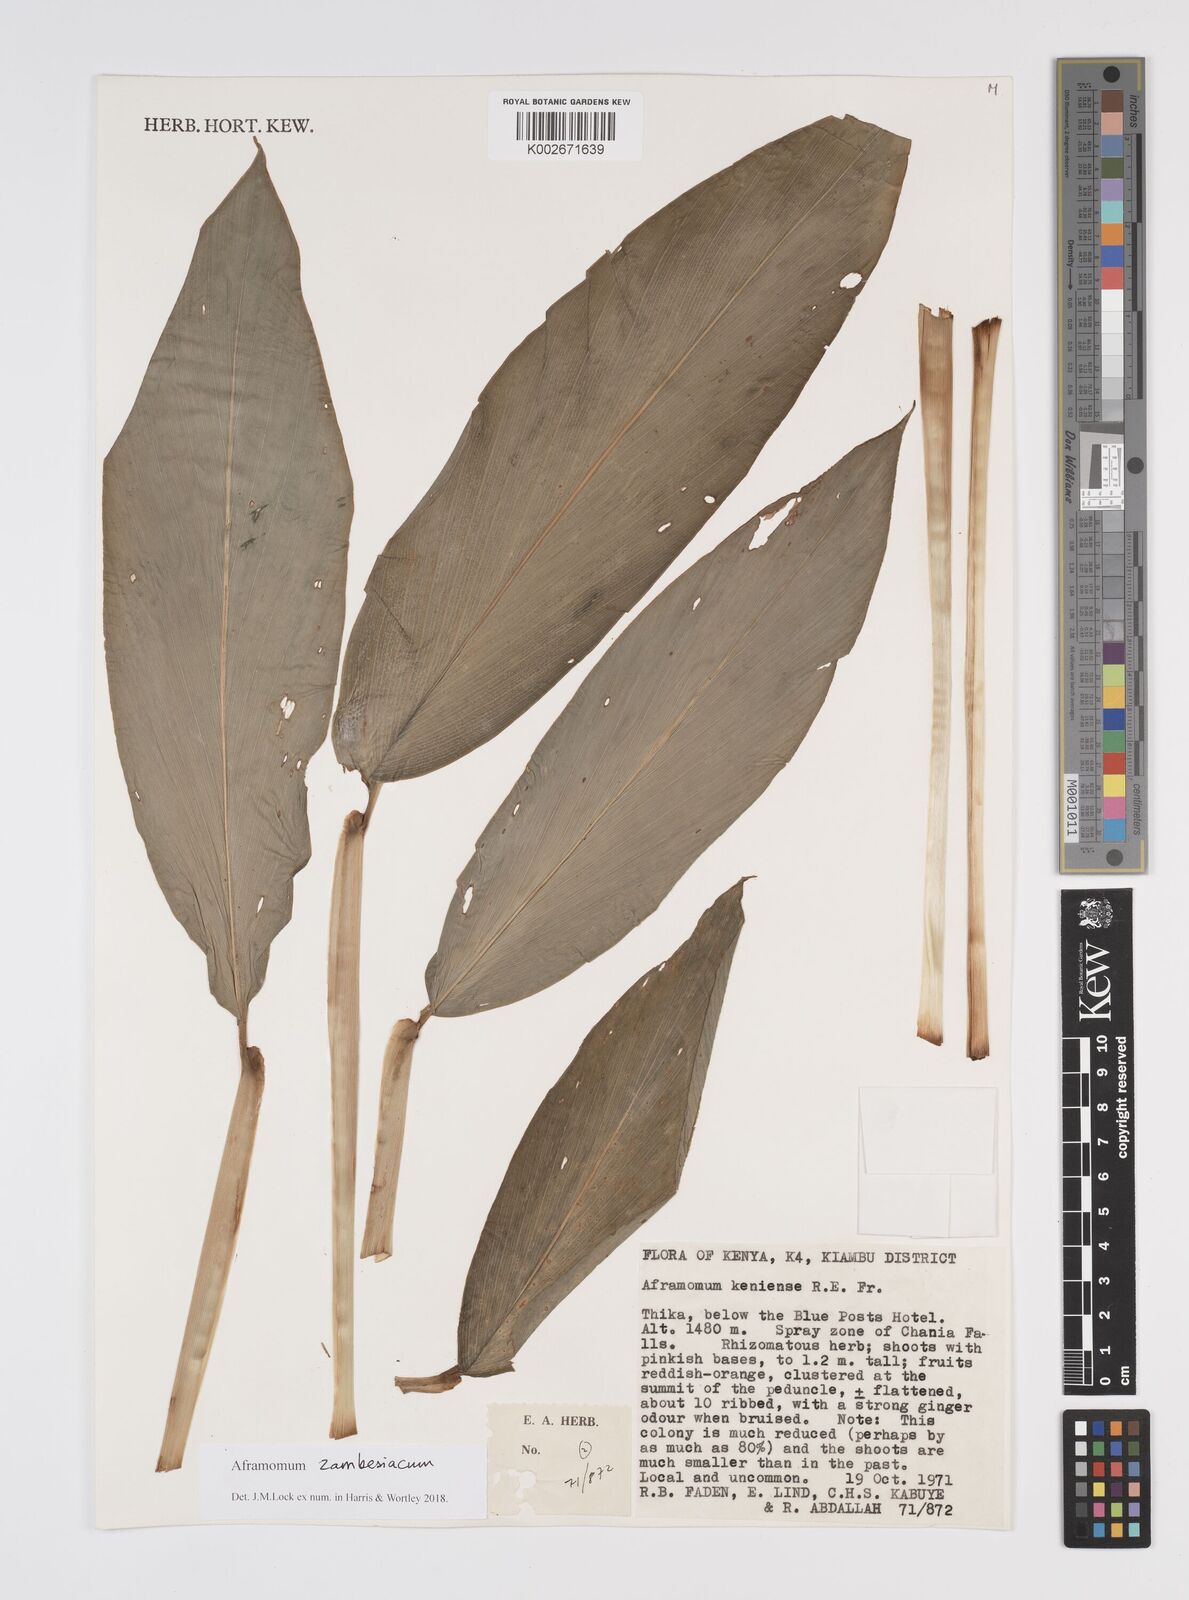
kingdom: Plantae
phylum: Tracheophyta
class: Liliopsida
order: Zingiberales
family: Zingiberaceae
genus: Aframomum
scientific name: Aframomum zambesiacum
